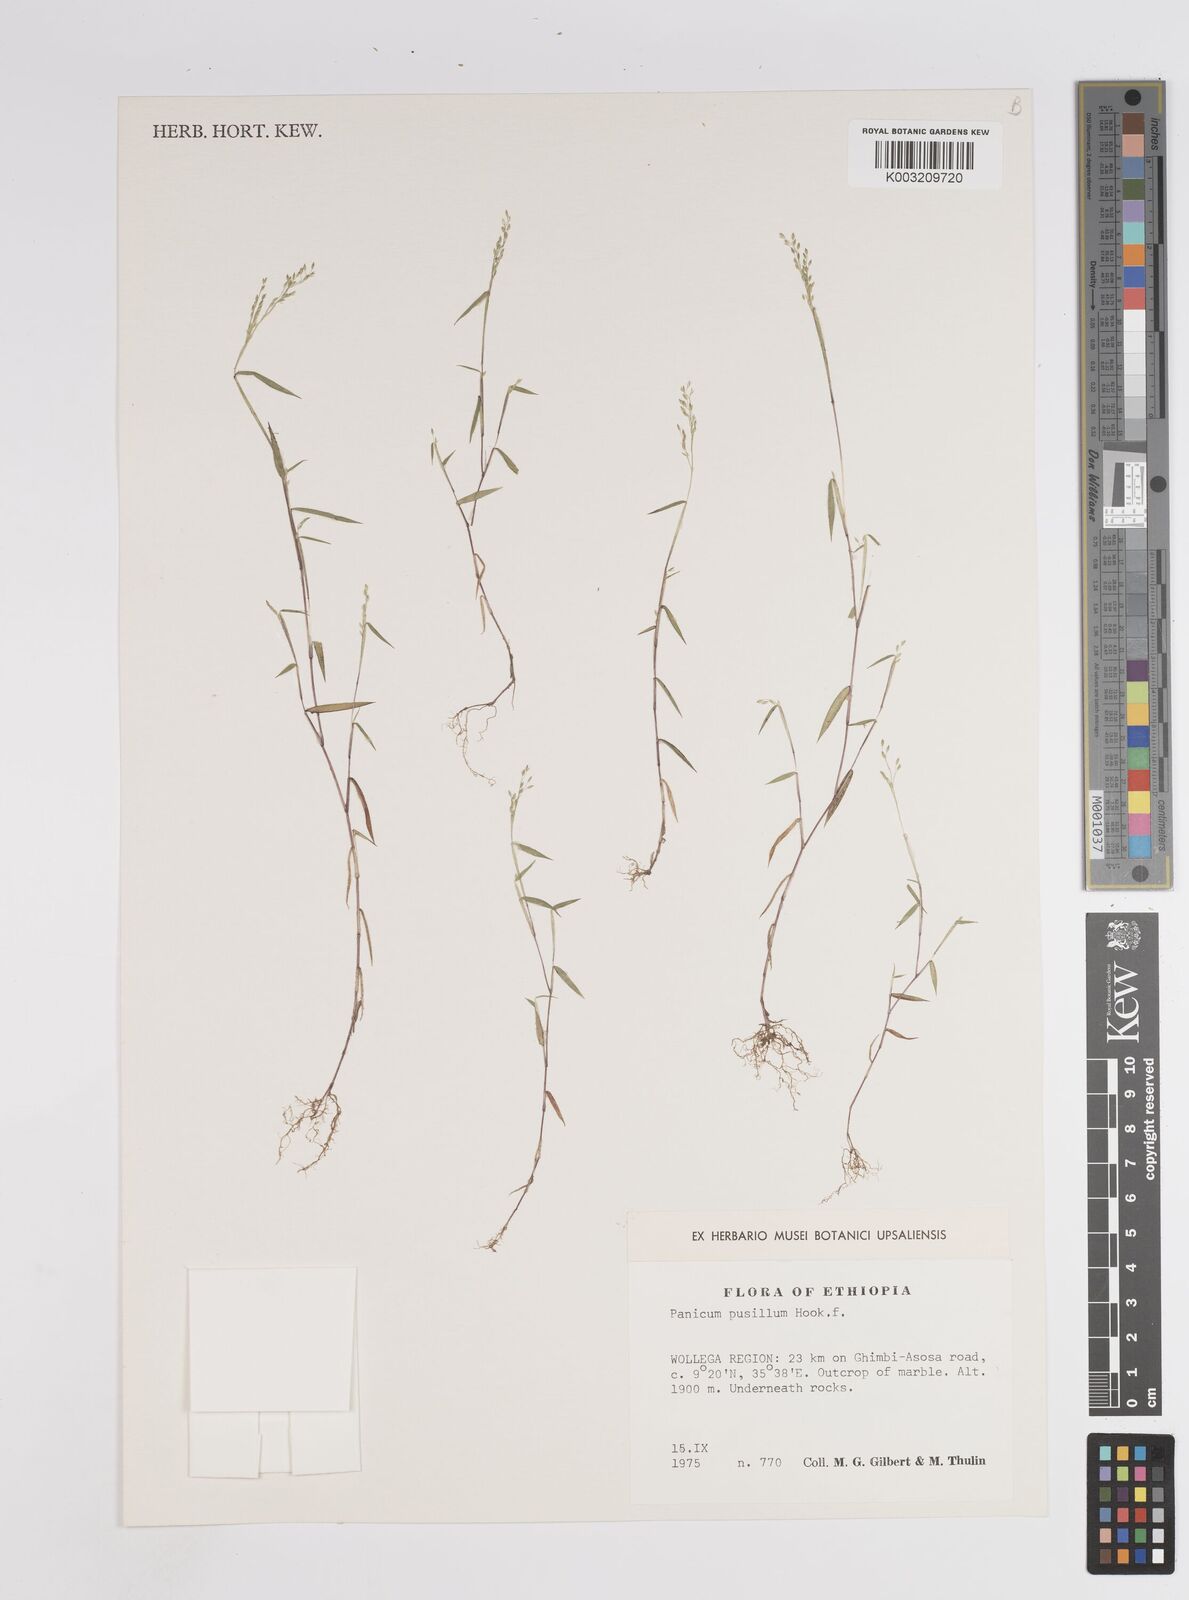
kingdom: Plantae
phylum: Tracheophyta
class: Liliopsida
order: Poales
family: Poaceae
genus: Panicum
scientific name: Panicum pusillum
